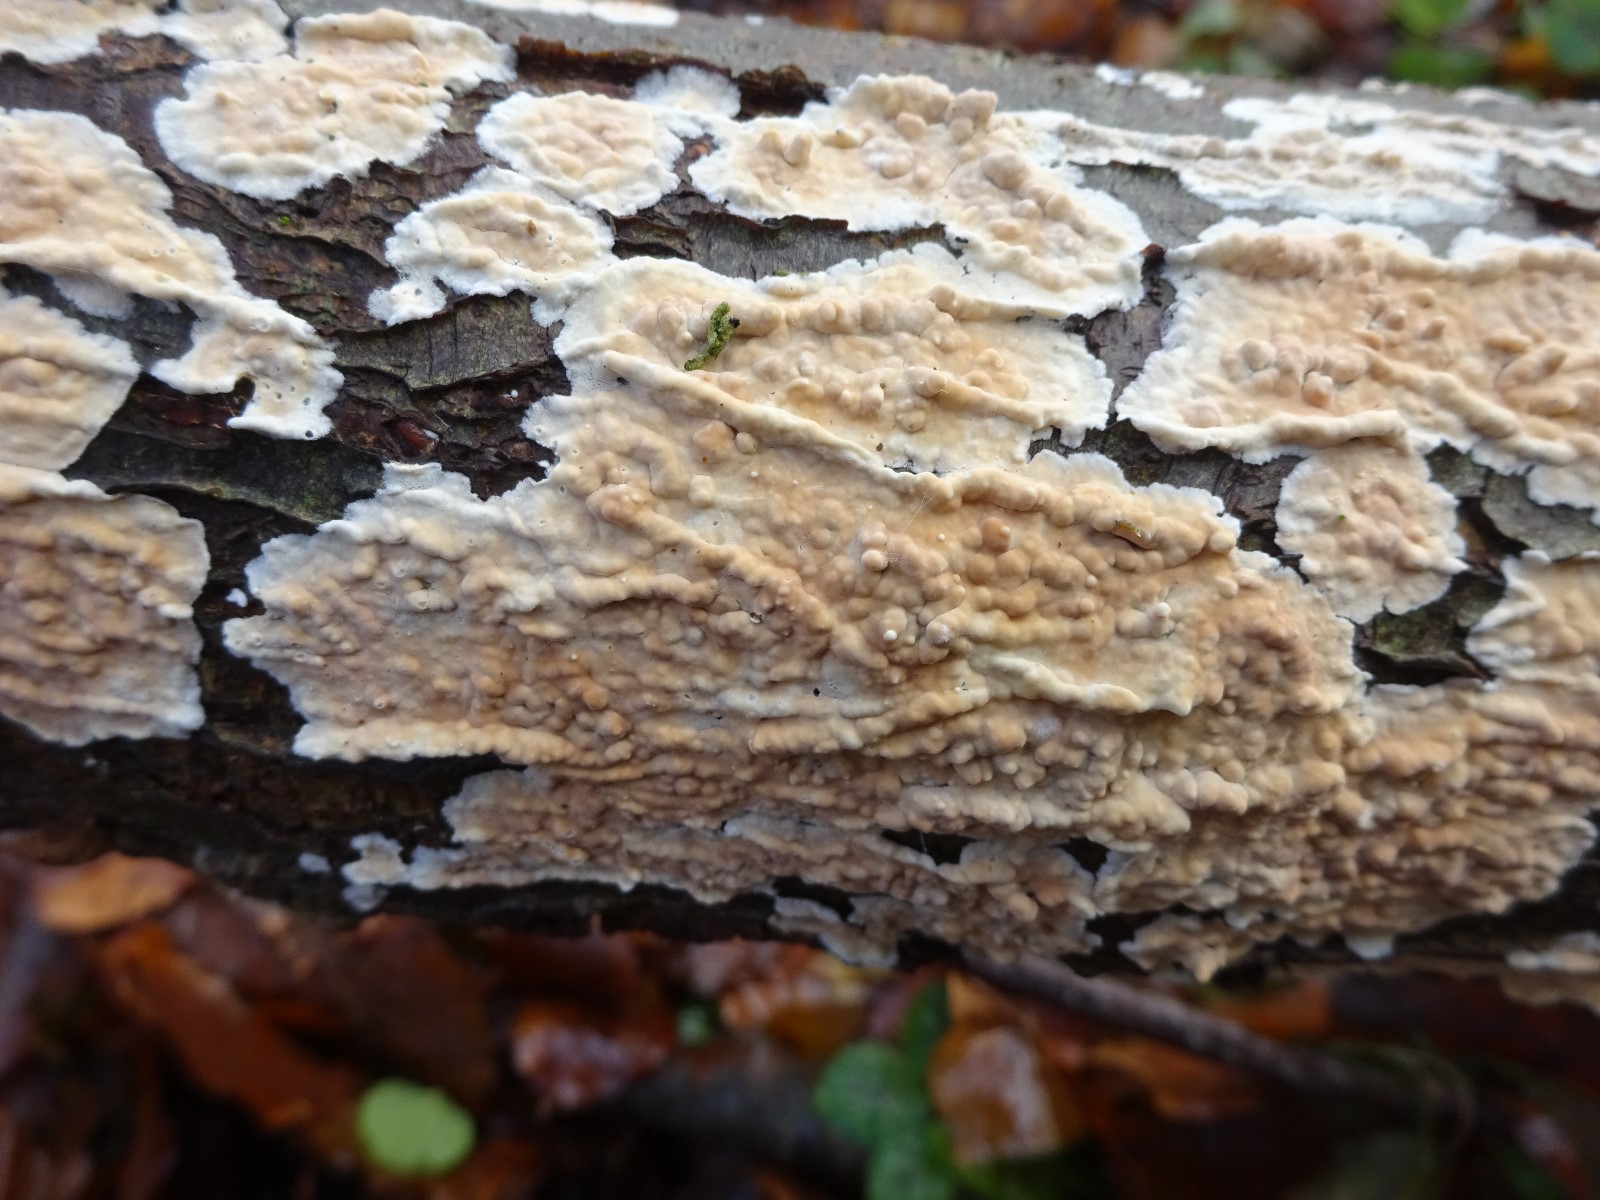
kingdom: Fungi
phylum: Basidiomycota
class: Agaricomycetes
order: Agaricales
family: Physalacriaceae
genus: Cylindrobasidium
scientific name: Cylindrobasidium evolvens
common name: sprækkehinde
